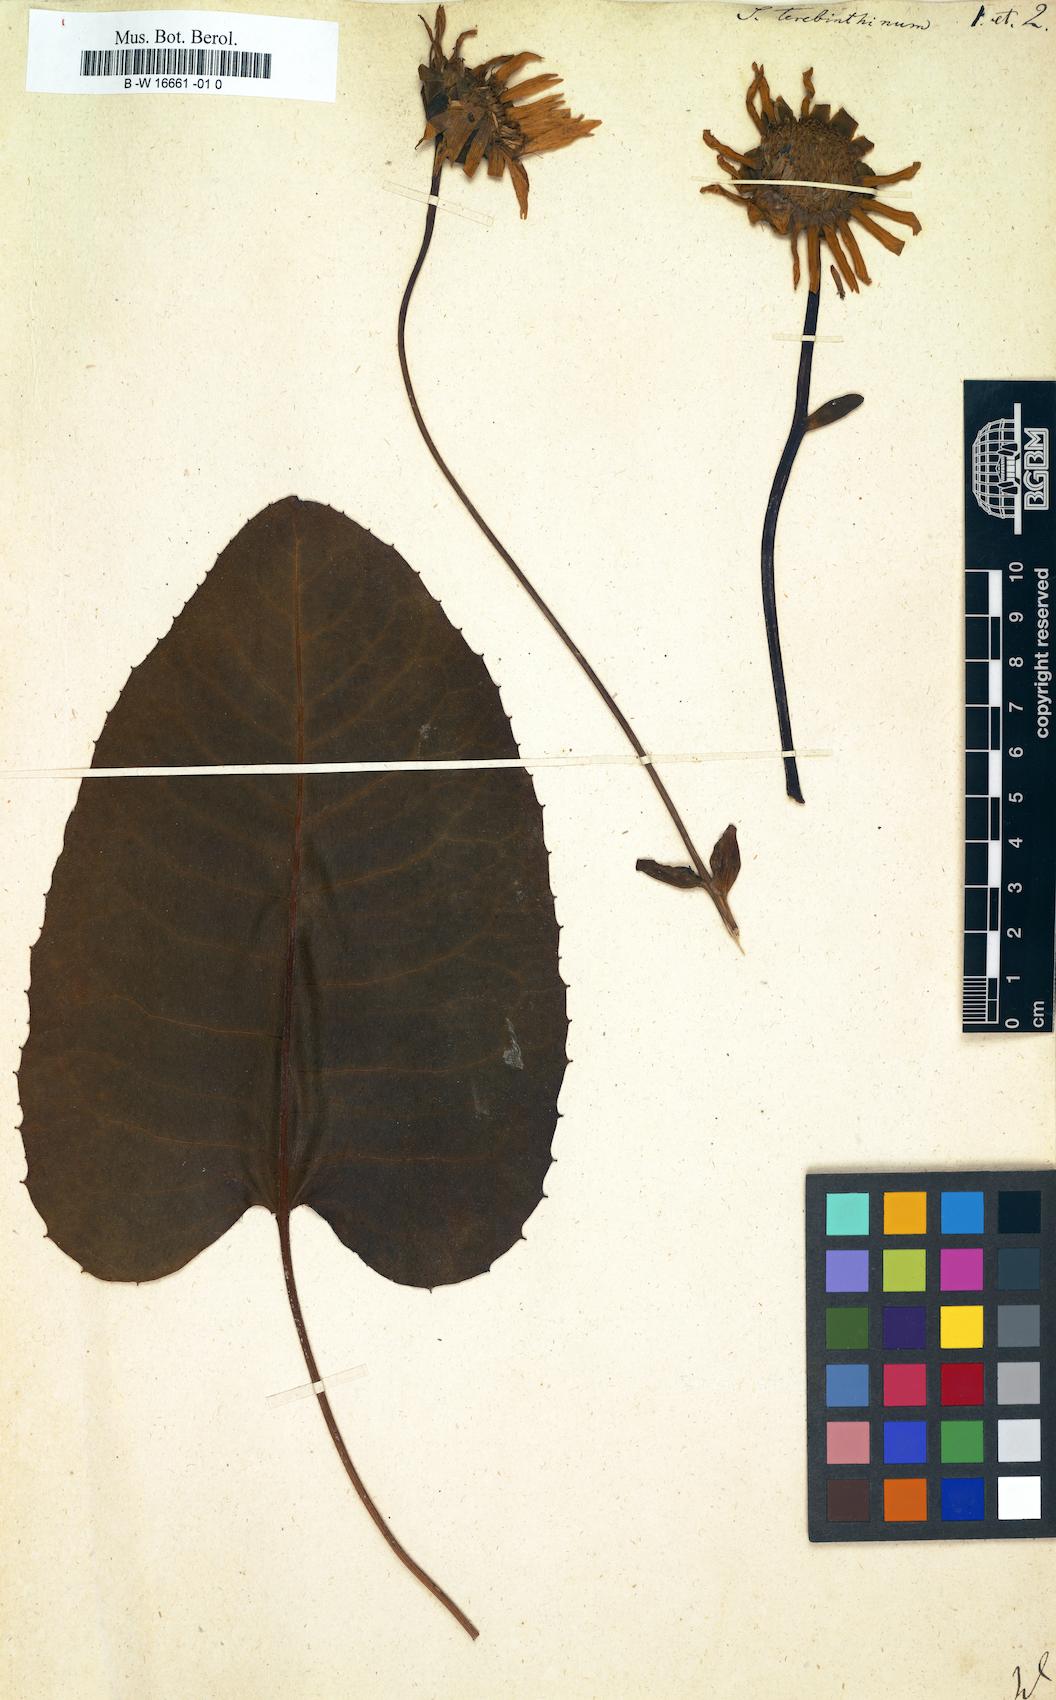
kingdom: Plantae
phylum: Tracheophyta
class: Magnoliopsida
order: Asterales
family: Asteraceae
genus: Silphium
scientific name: Silphium
